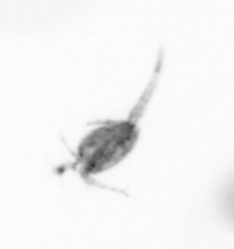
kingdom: Animalia
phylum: Arthropoda
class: Copepoda
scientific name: Copepoda
